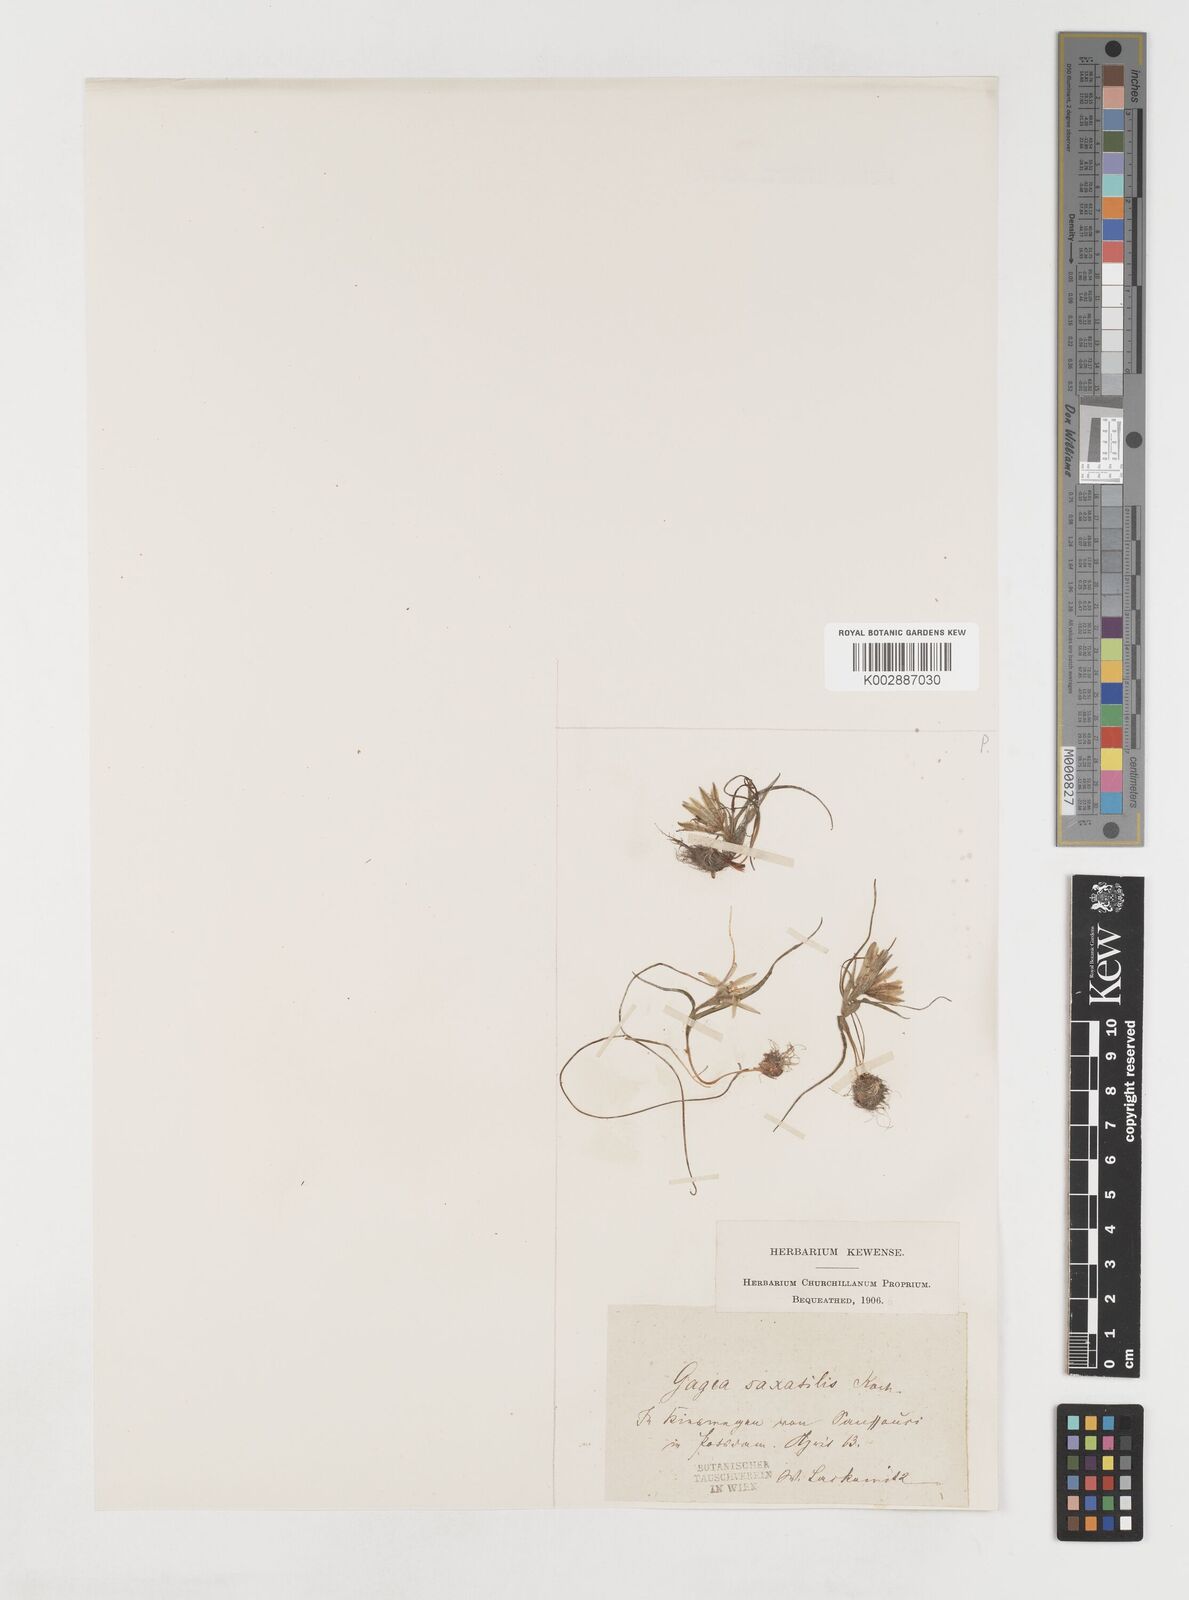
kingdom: Plantae
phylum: Tracheophyta
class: Liliopsida
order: Liliales
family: Liliaceae
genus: Gagea
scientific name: Gagea bohemica
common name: Early star-of-bethlehem
